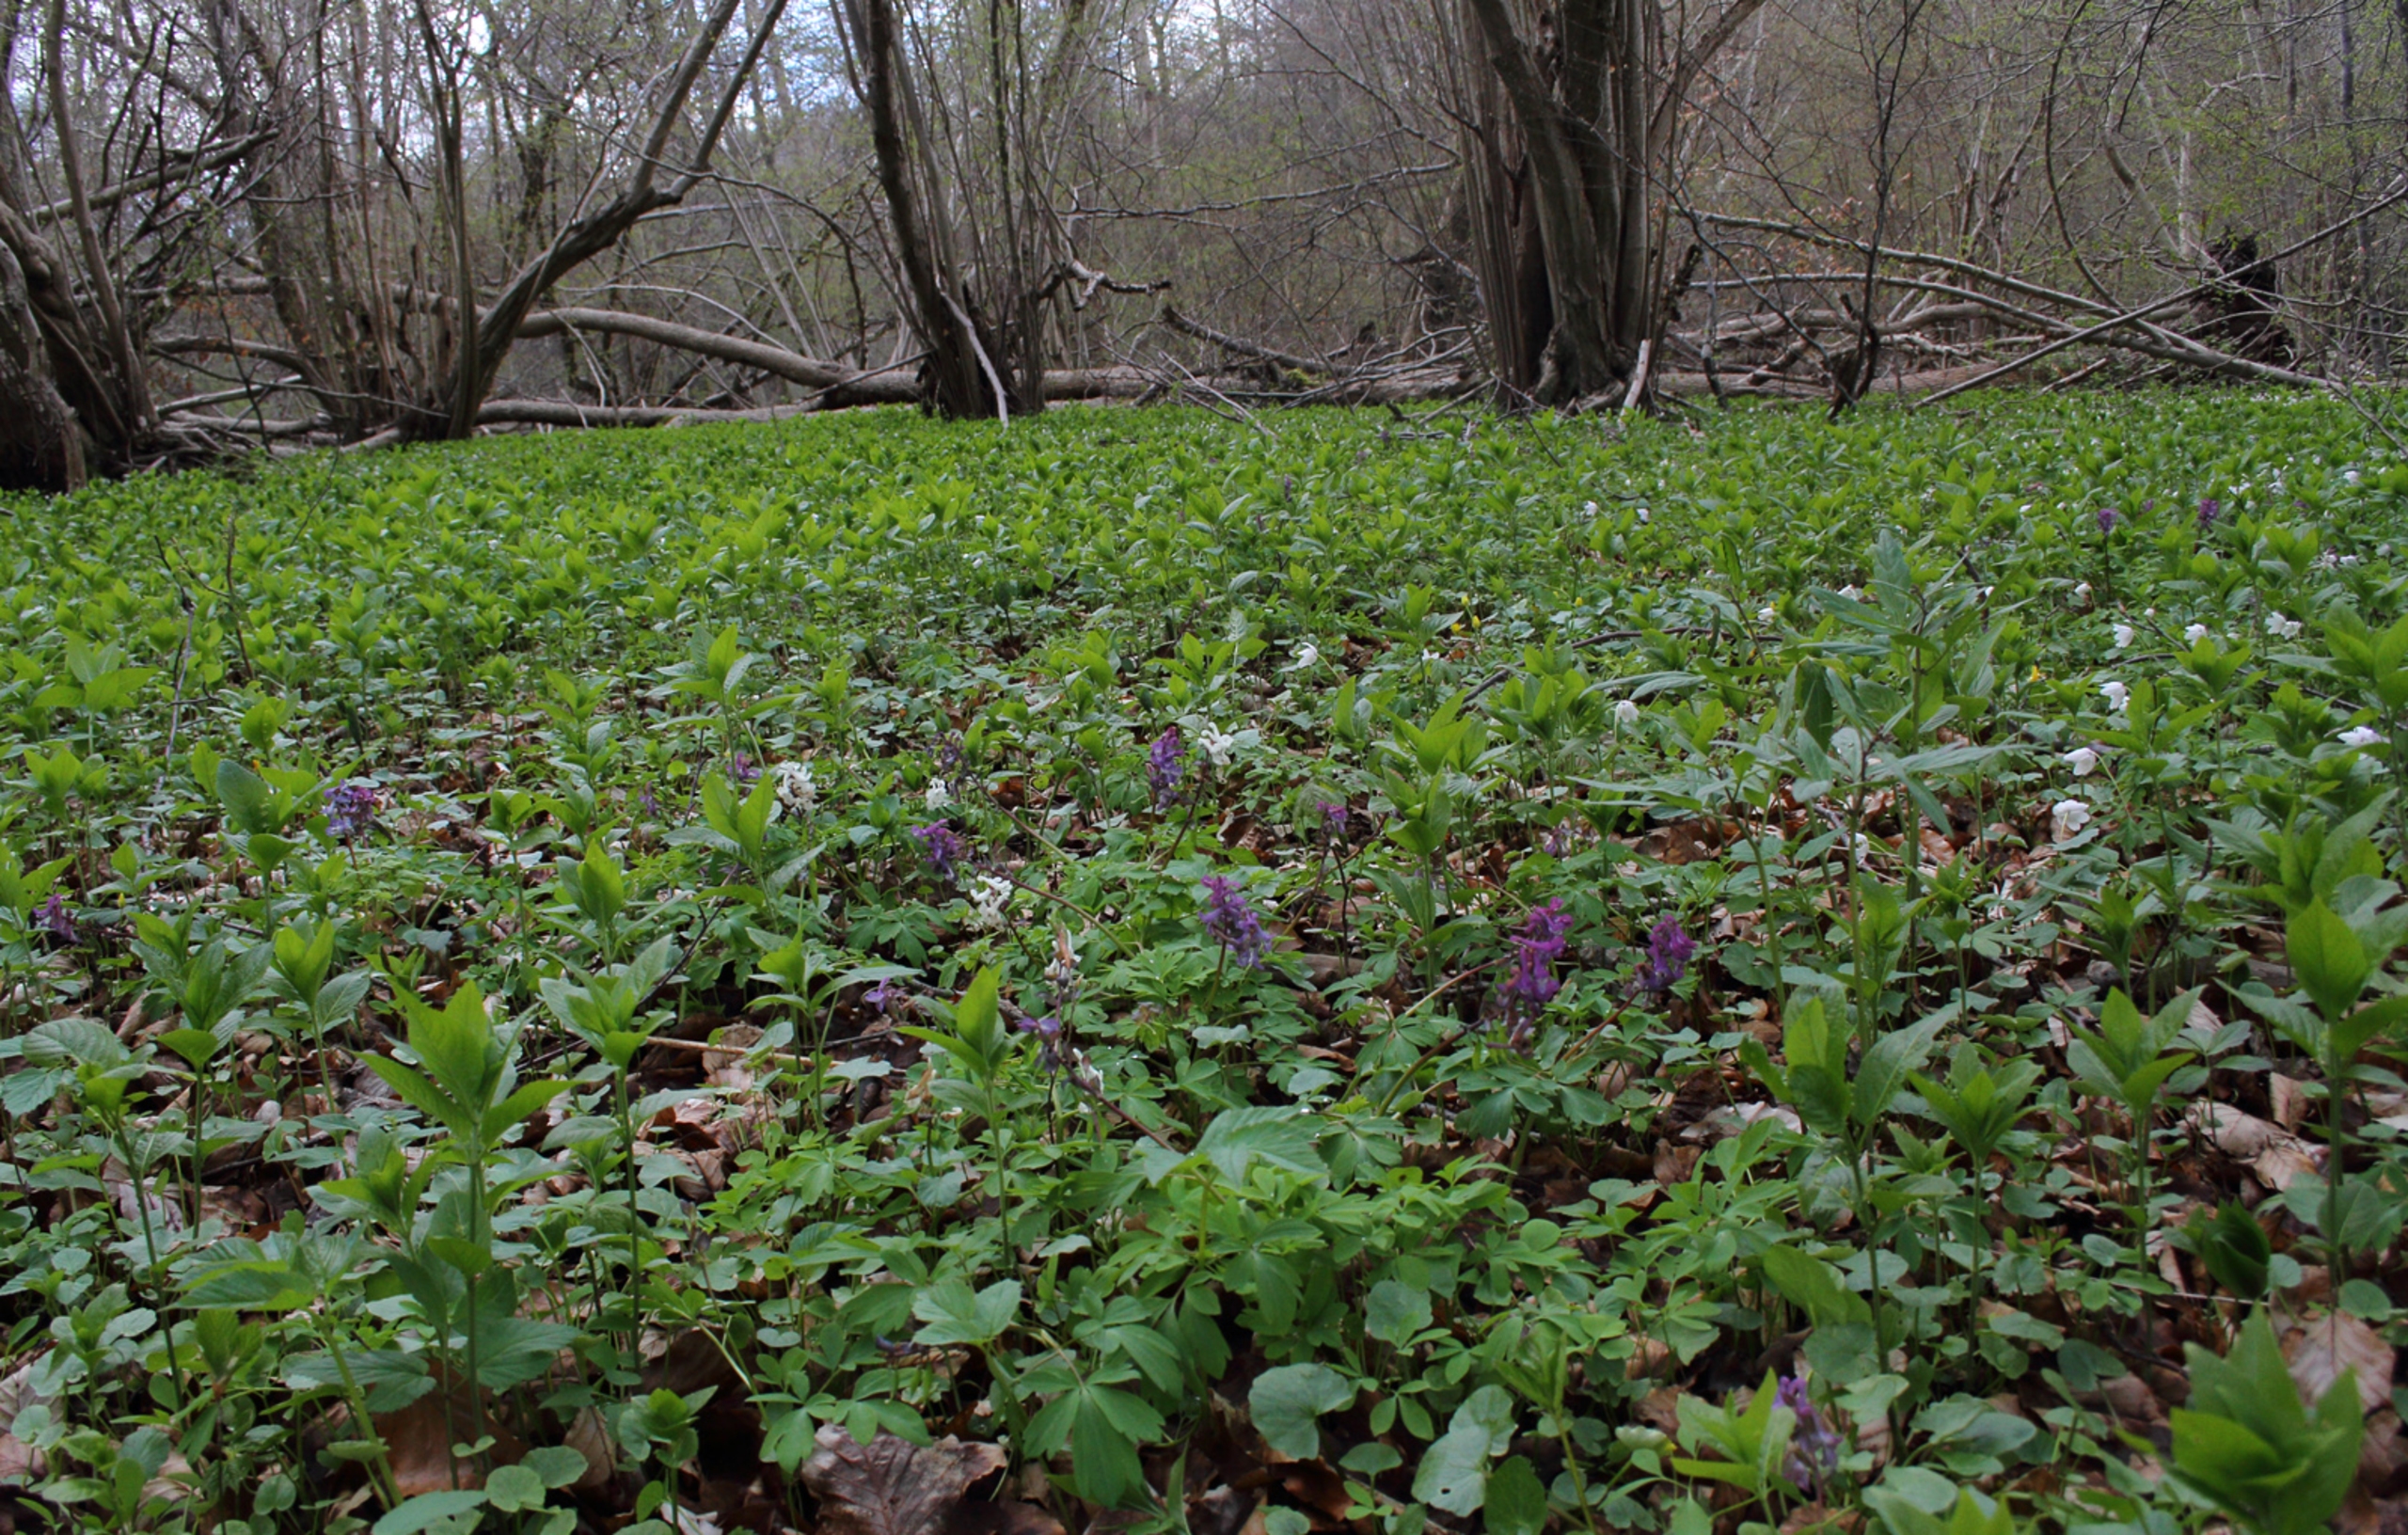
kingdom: Plantae
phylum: Tracheophyta
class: Magnoliopsida
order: Ranunculales
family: Papaveraceae
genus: Corydalis
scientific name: Corydalis cava
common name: Hulrodet lærkespore
